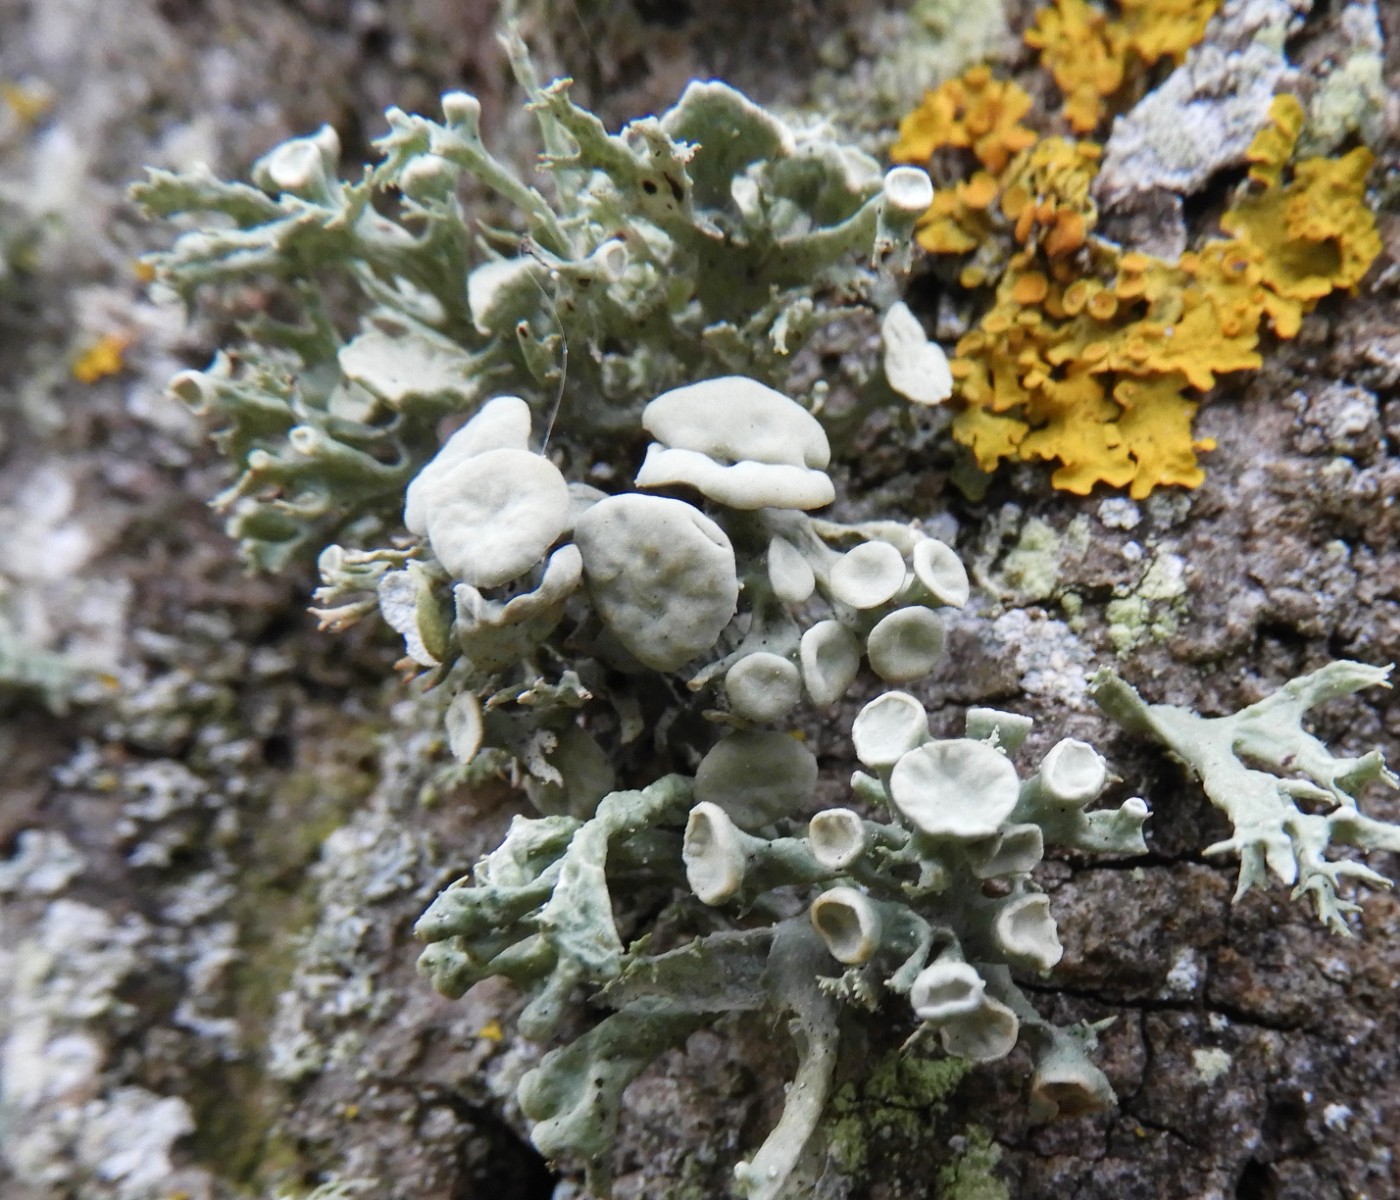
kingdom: Fungi
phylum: Ascomycota
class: Lecanoromycetes
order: Lecanorales
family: Ramalinaceae
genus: Ramalina
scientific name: Ramalina fastigiata
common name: tue-grenlav
